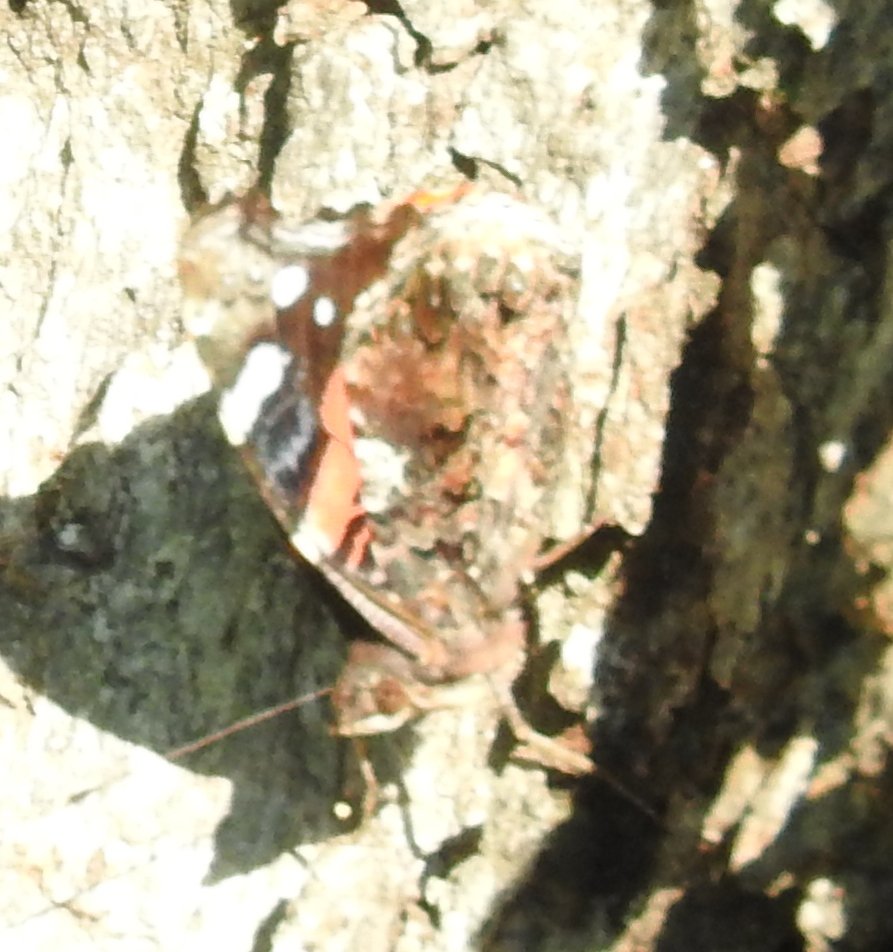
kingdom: Animalia
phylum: Arthropoda
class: Insecta
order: Lepidoptera
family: Nymphalidae
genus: Vanessa
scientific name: Vanessa atalanta
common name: Red Admiral
